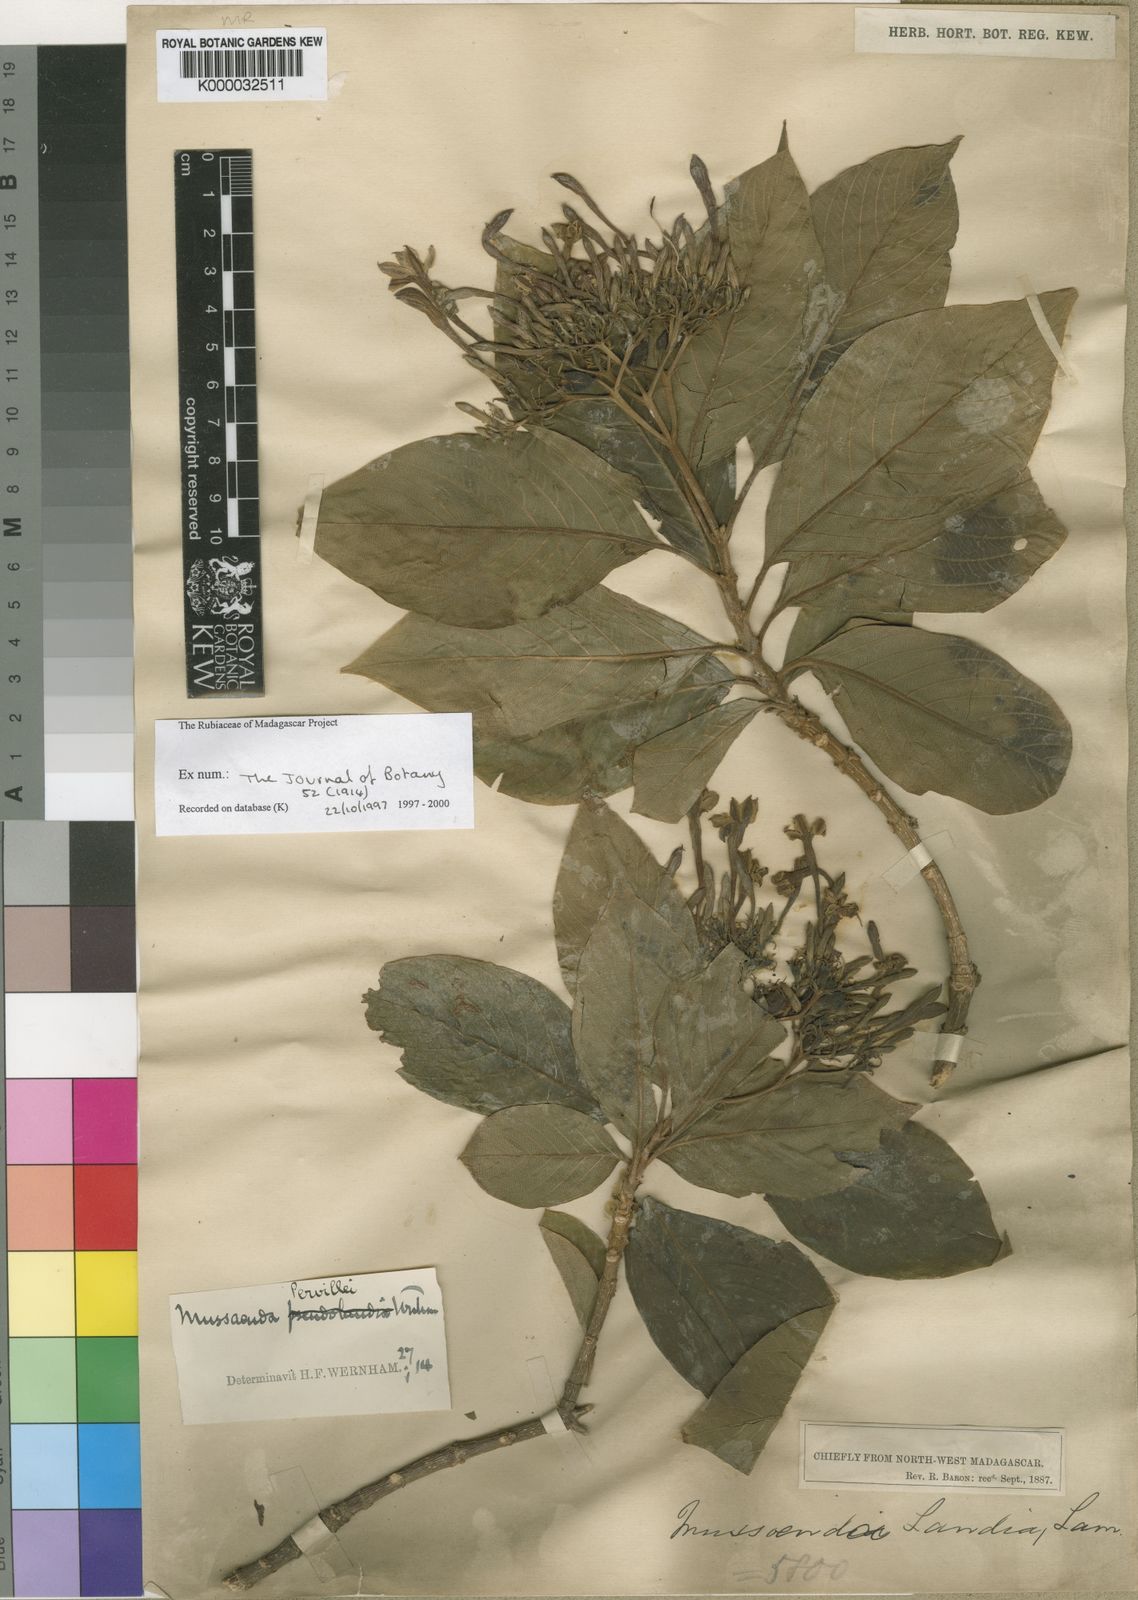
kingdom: Plantae
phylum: Tracheophyta
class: Magnoliopsida
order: Gentianales
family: Rubiaceae
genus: Bremeria
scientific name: Bremeria pervillei
